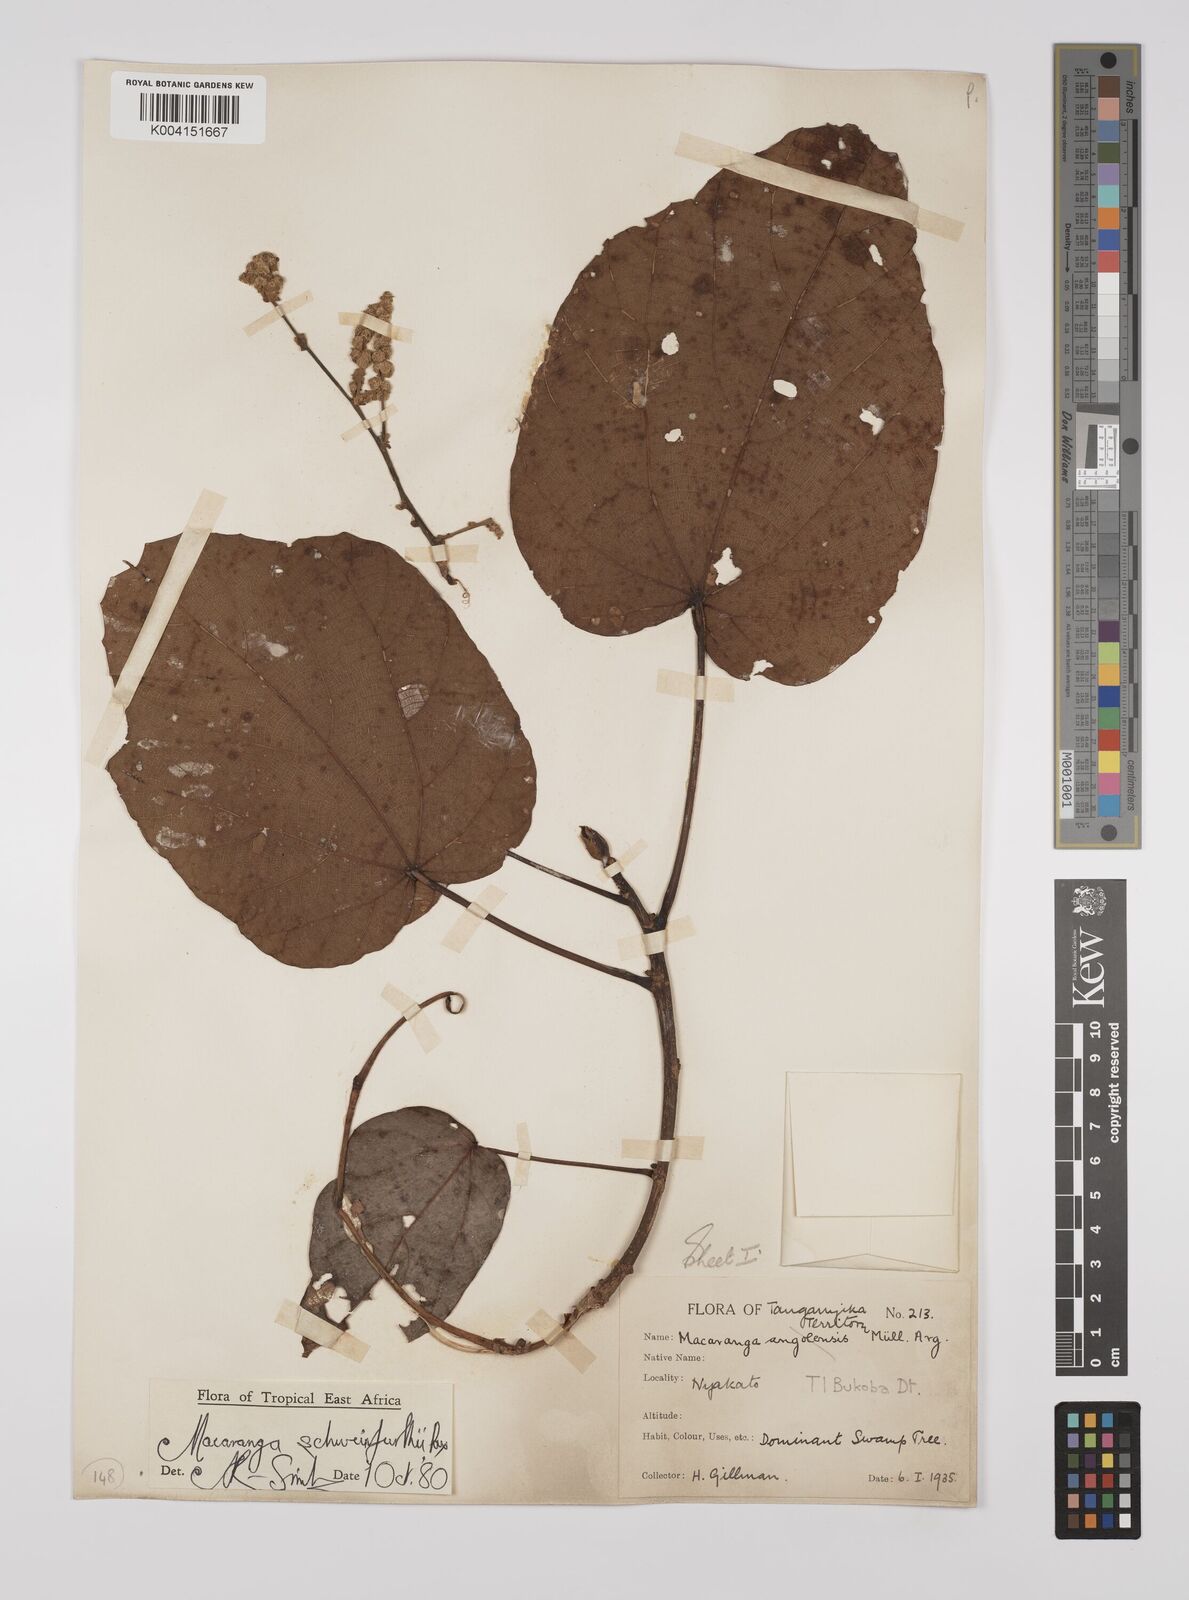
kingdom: Plantae
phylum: Tracheophyta
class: Magnoliopsida
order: Malpighiales
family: Euphorbiaceae
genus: Macaranga
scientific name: Macaranga schweinfurthii
